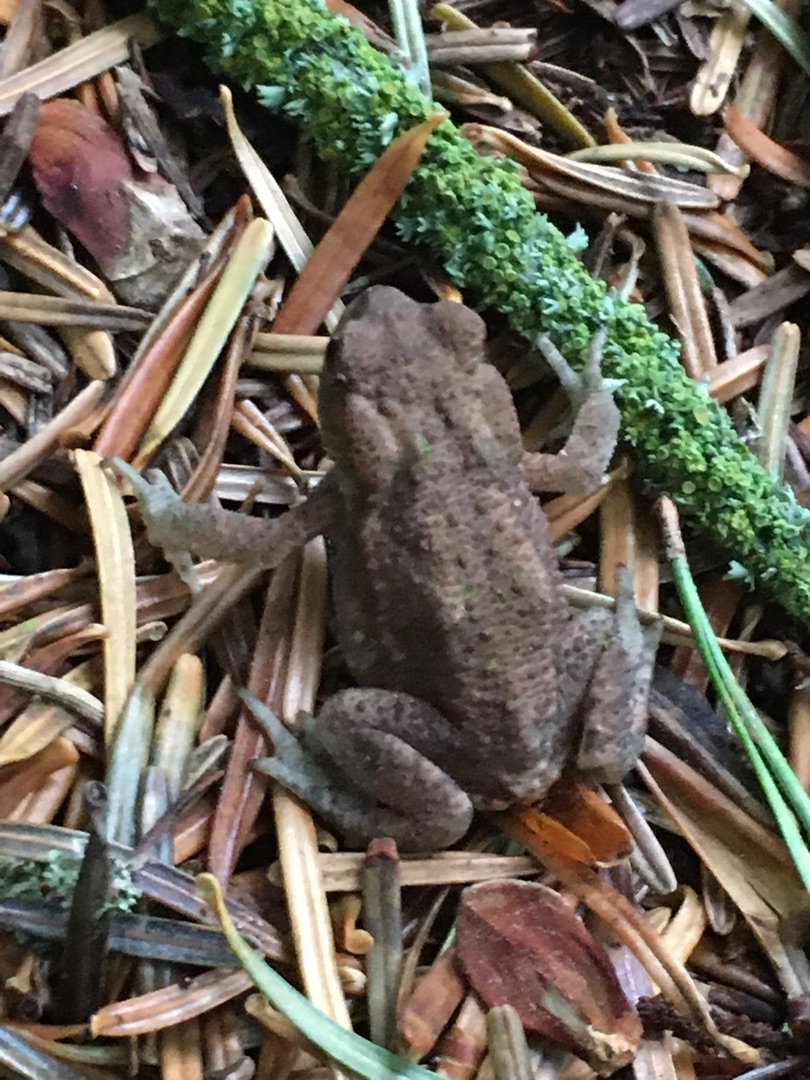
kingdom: Animalia
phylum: Chordata
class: Amphibia
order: Anura
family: Bufonidae
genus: Bufo
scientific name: Bufo bufo
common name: Skrubtudse
